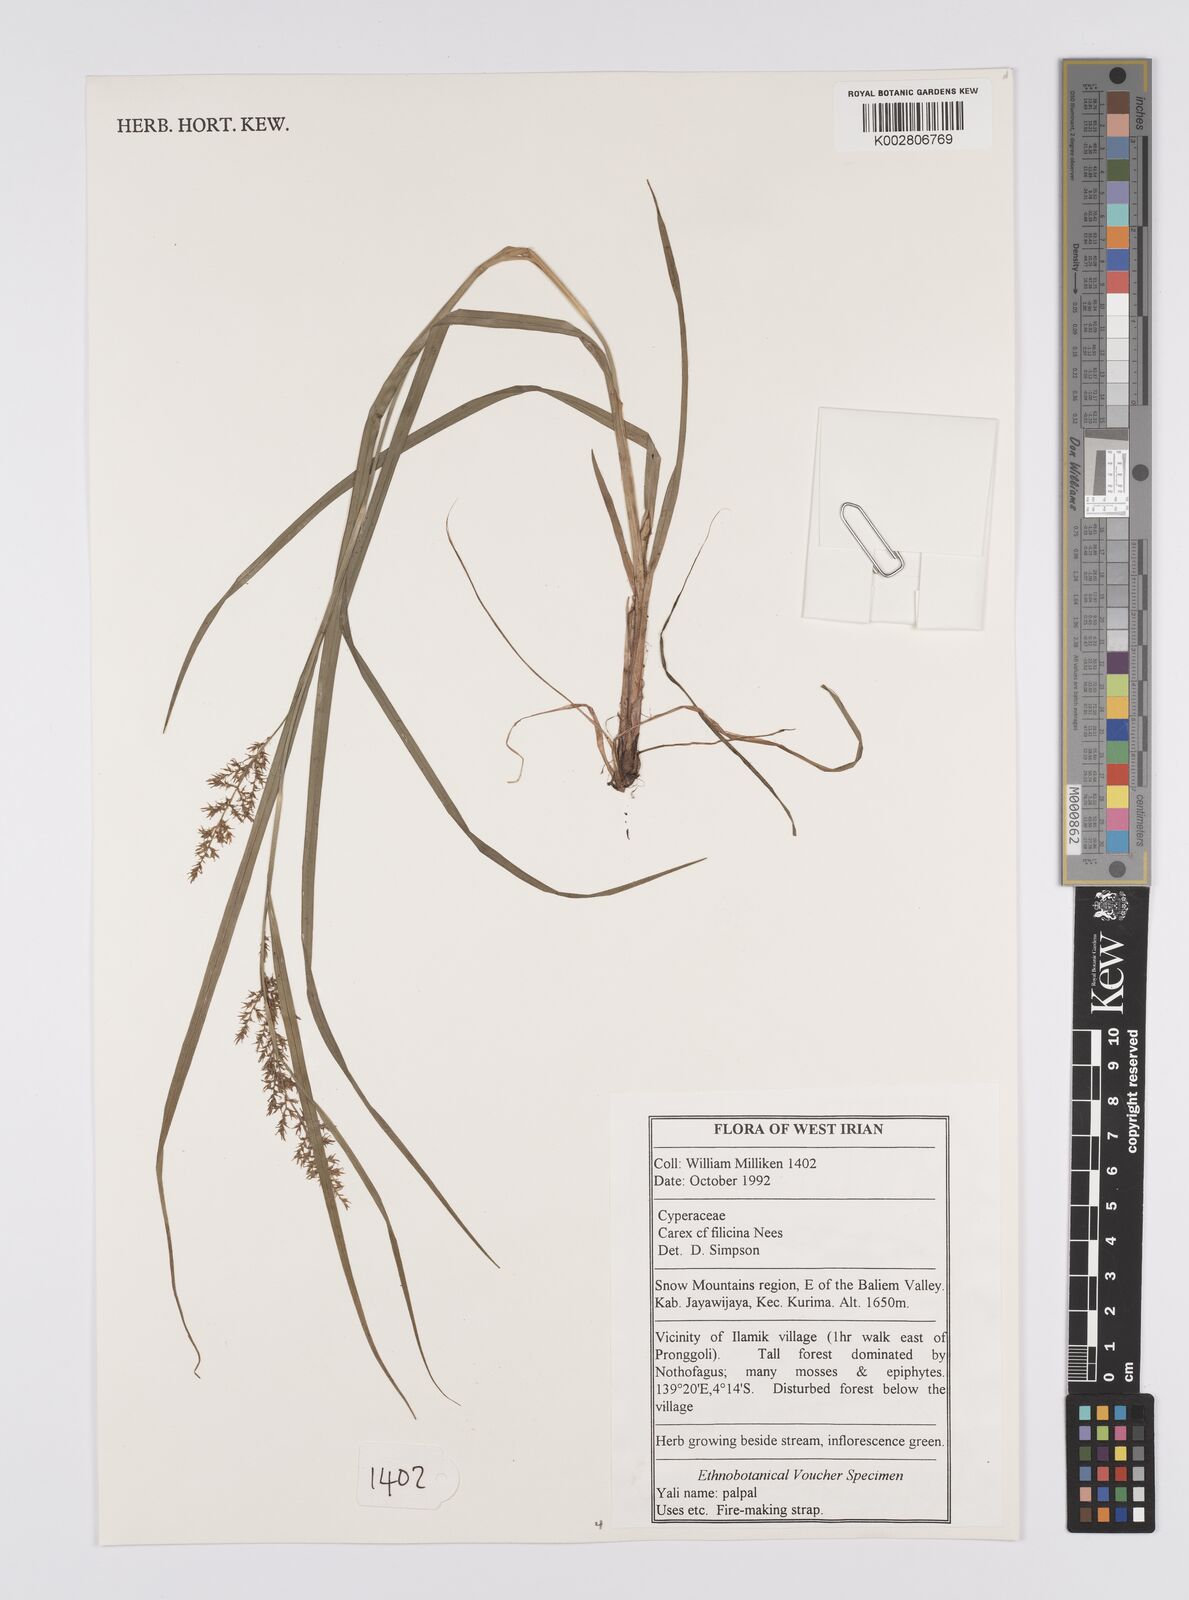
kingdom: Plantae
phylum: Tracheophyta
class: Liliopsida
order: Poales
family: Cyperaceae
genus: Carex
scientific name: Carex filicina
